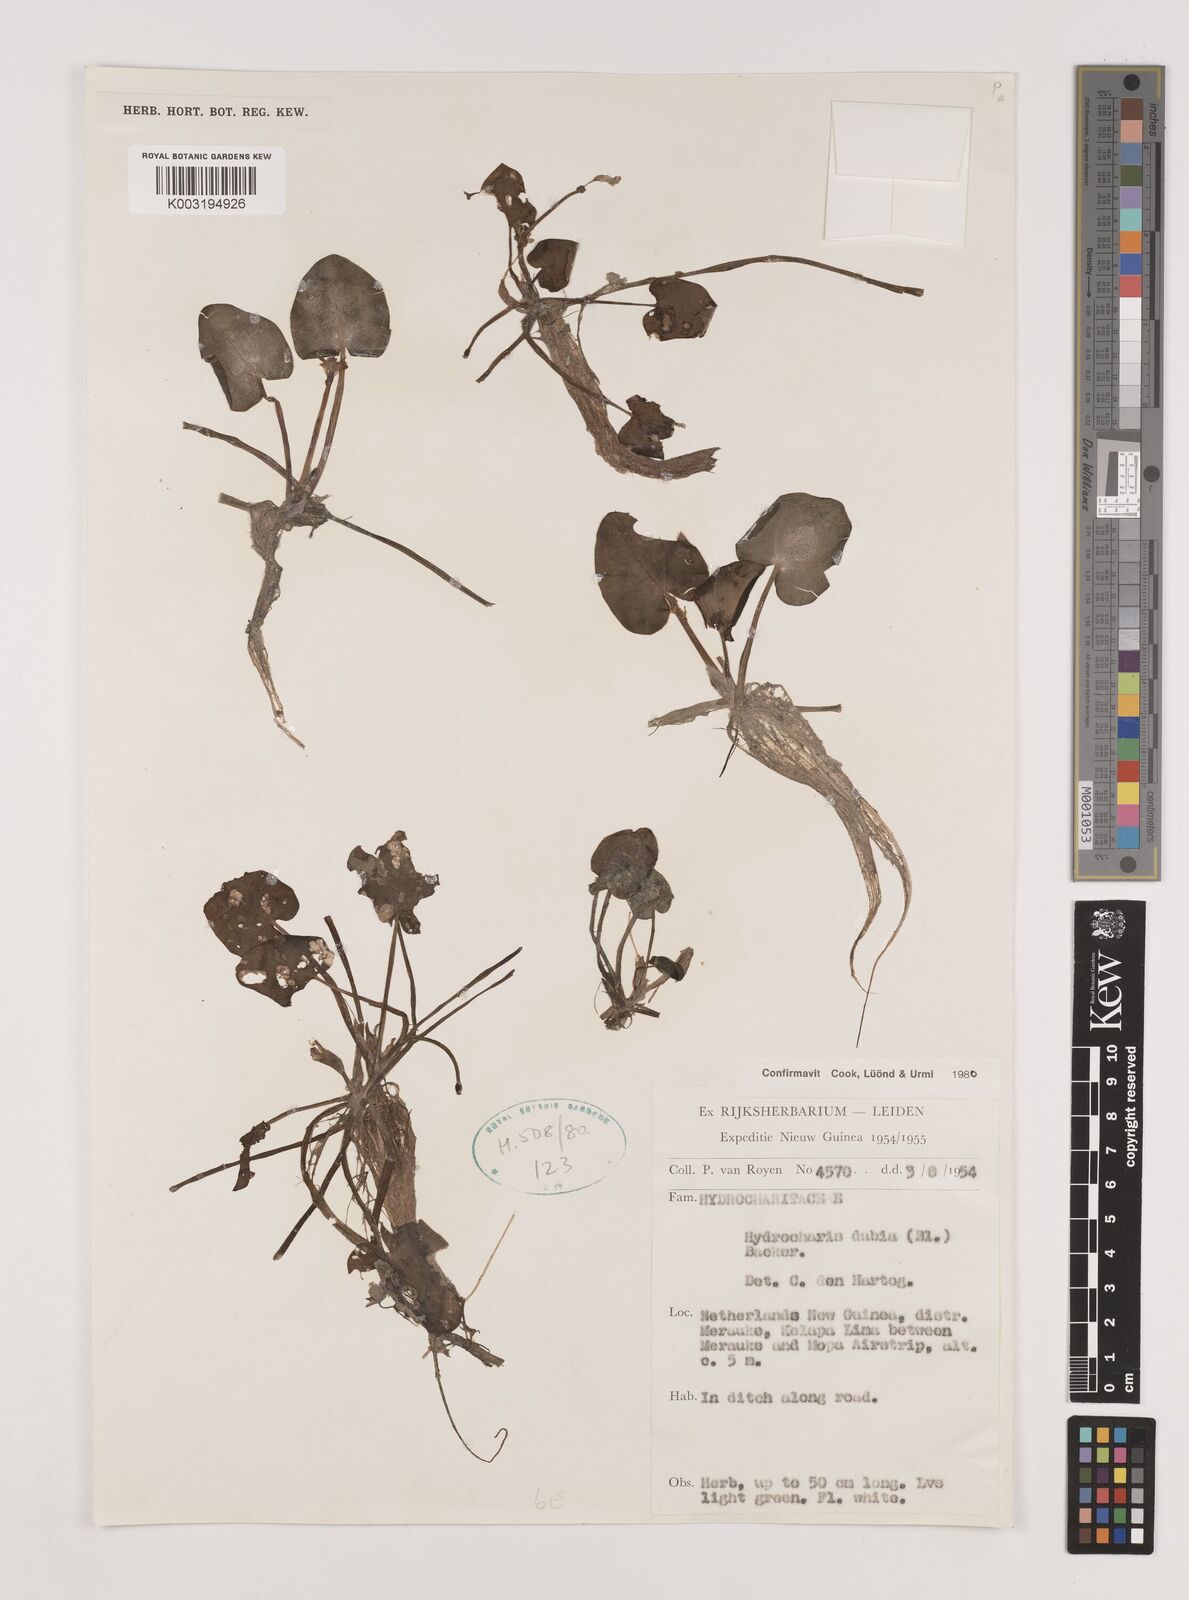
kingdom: Plantae
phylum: Tracheophyta
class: Liliopsida
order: Alismatales
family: Hydrocharitaceae
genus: Hydrocharis
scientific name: Hydrocharis dubia
